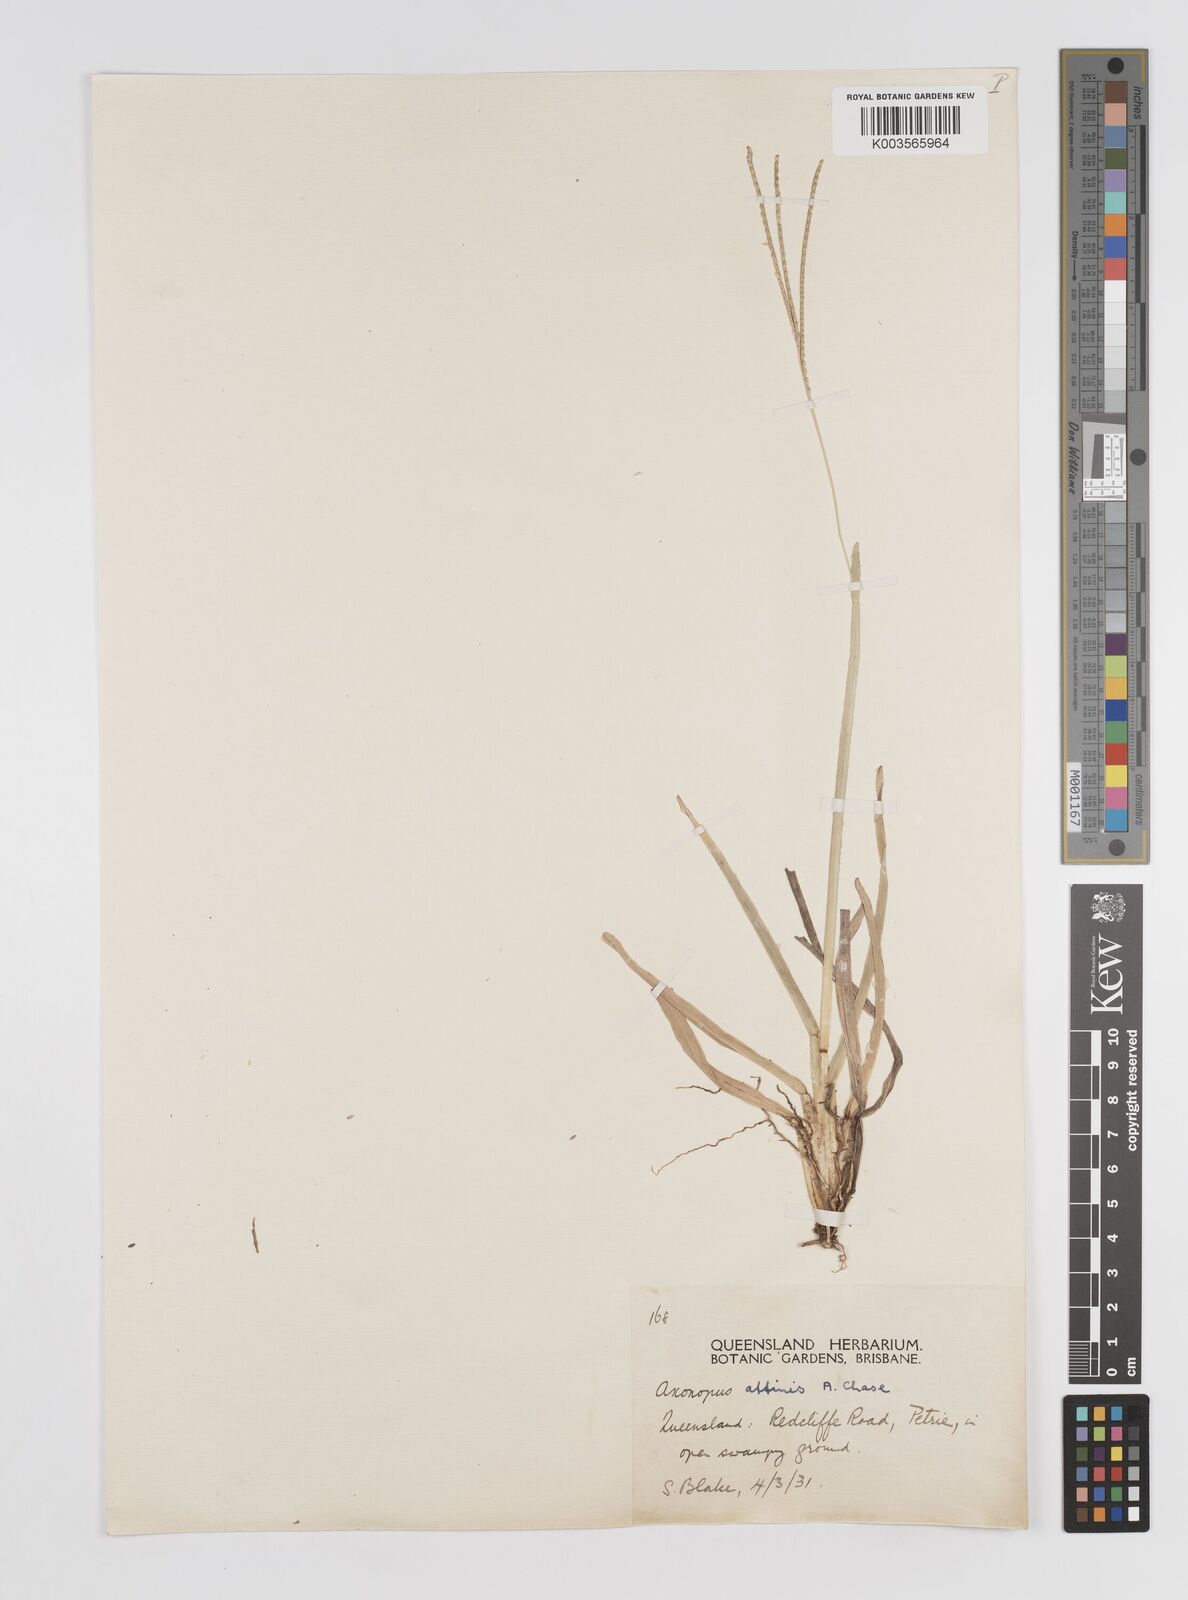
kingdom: Plantae
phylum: Tracheophyta
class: Liliopsida
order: Poales
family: Poaceae
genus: Axonopus
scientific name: Axonopus fissifolius
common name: Common carpetgrass
